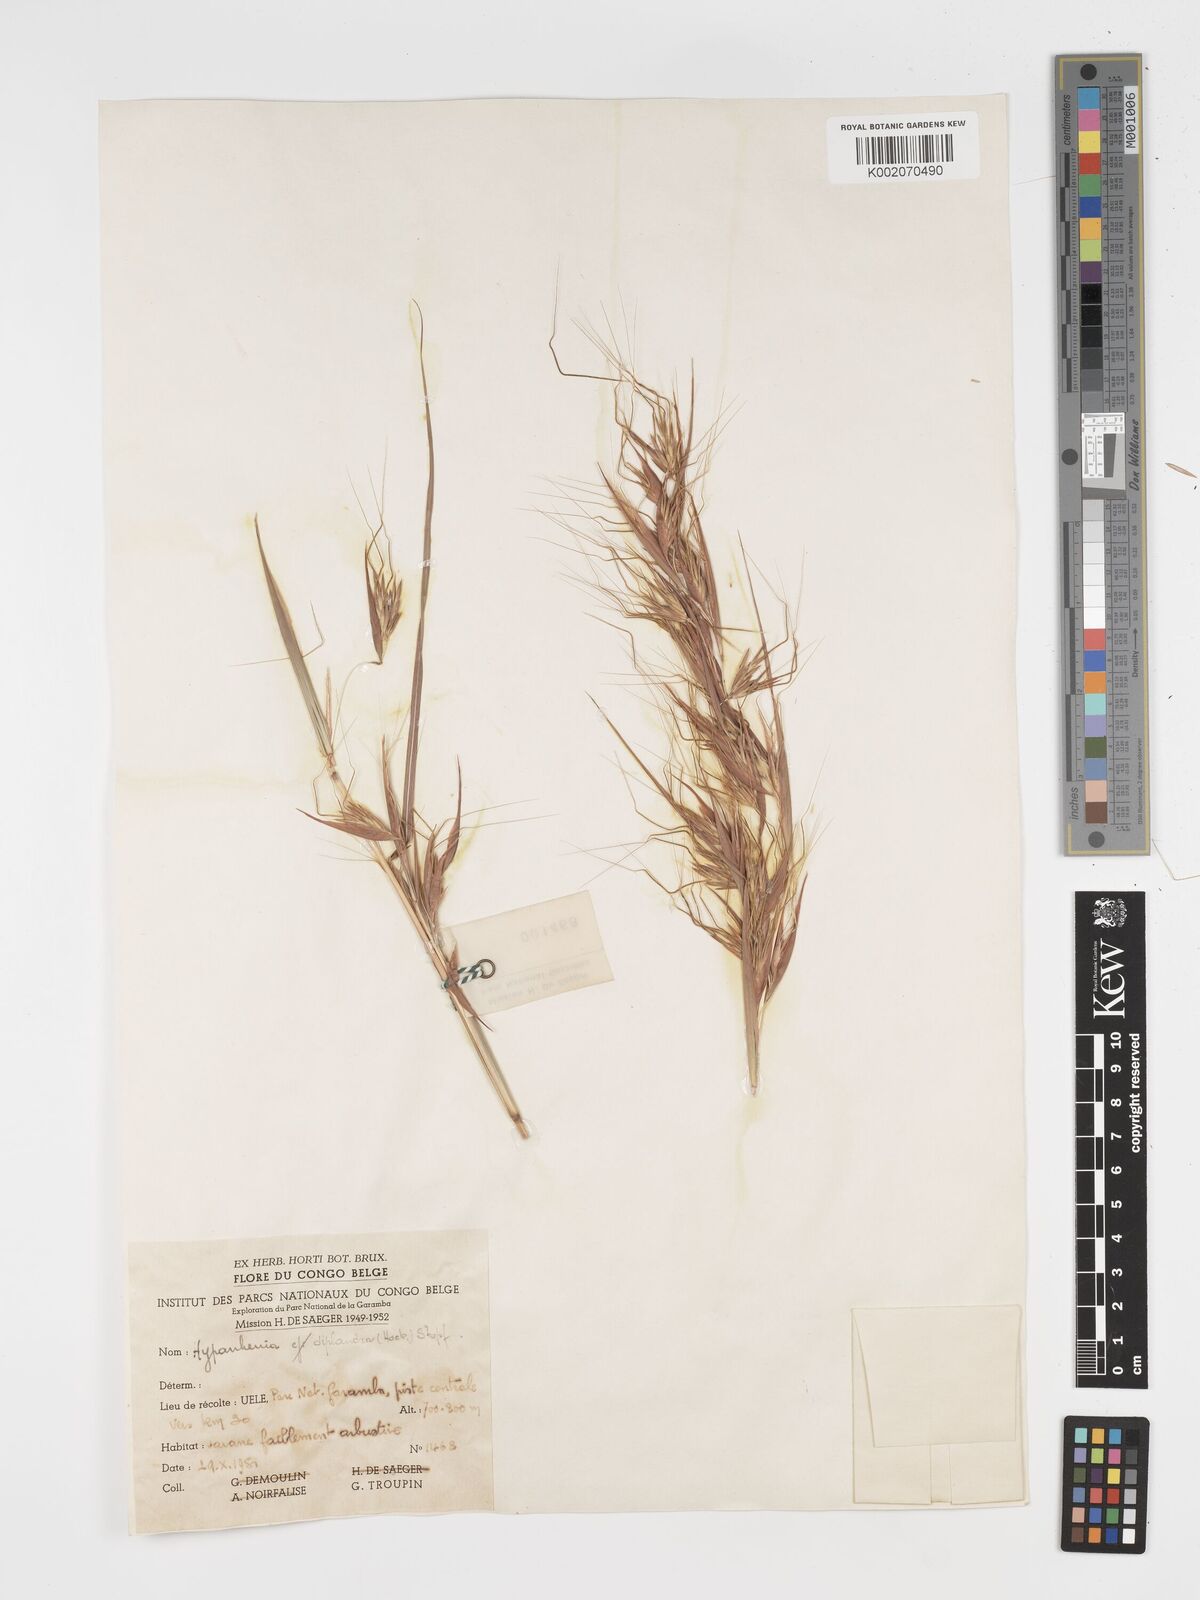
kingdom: Plantae
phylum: Tracheophyta
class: Liliopsida
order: Poales
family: Poaceae
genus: Hyparrhenia
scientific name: Hyparrhenia diplandra
